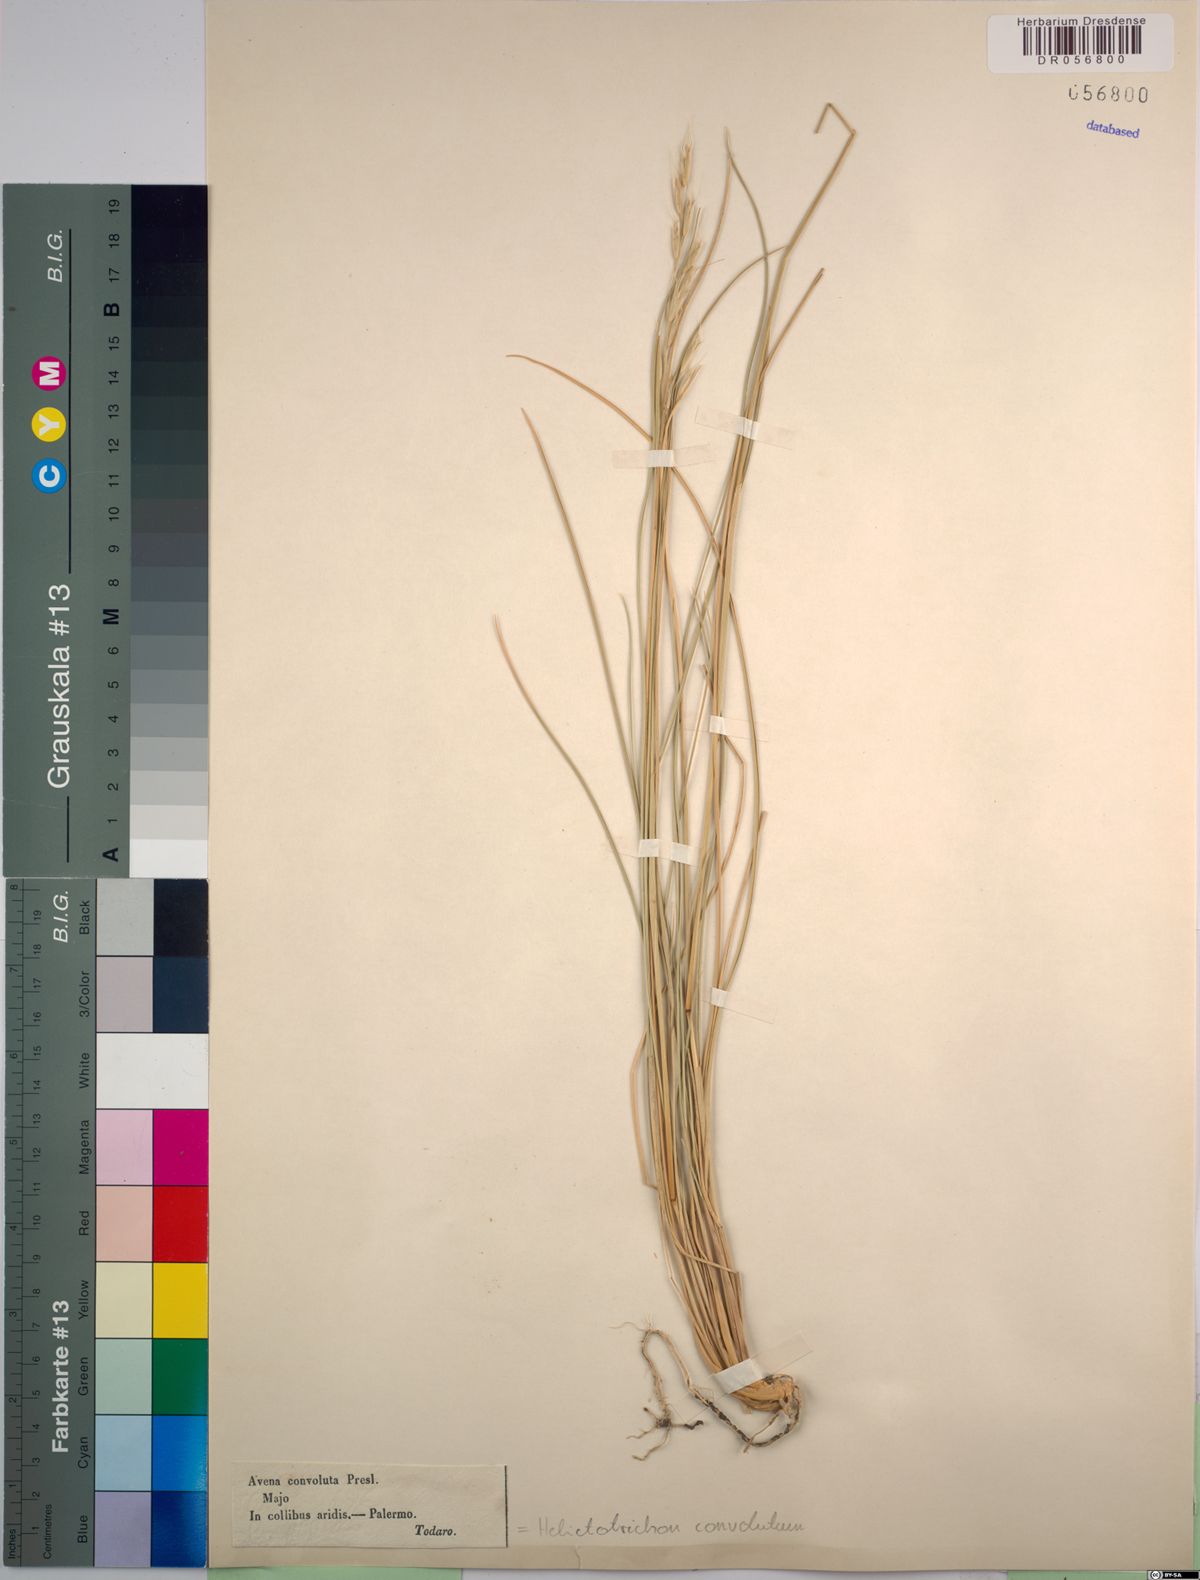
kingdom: Plantae
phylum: Tracheophyta
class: Liliopsida
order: Poales
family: Poaceae
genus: Helictotrichon
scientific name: Helictotrichon convolutum
